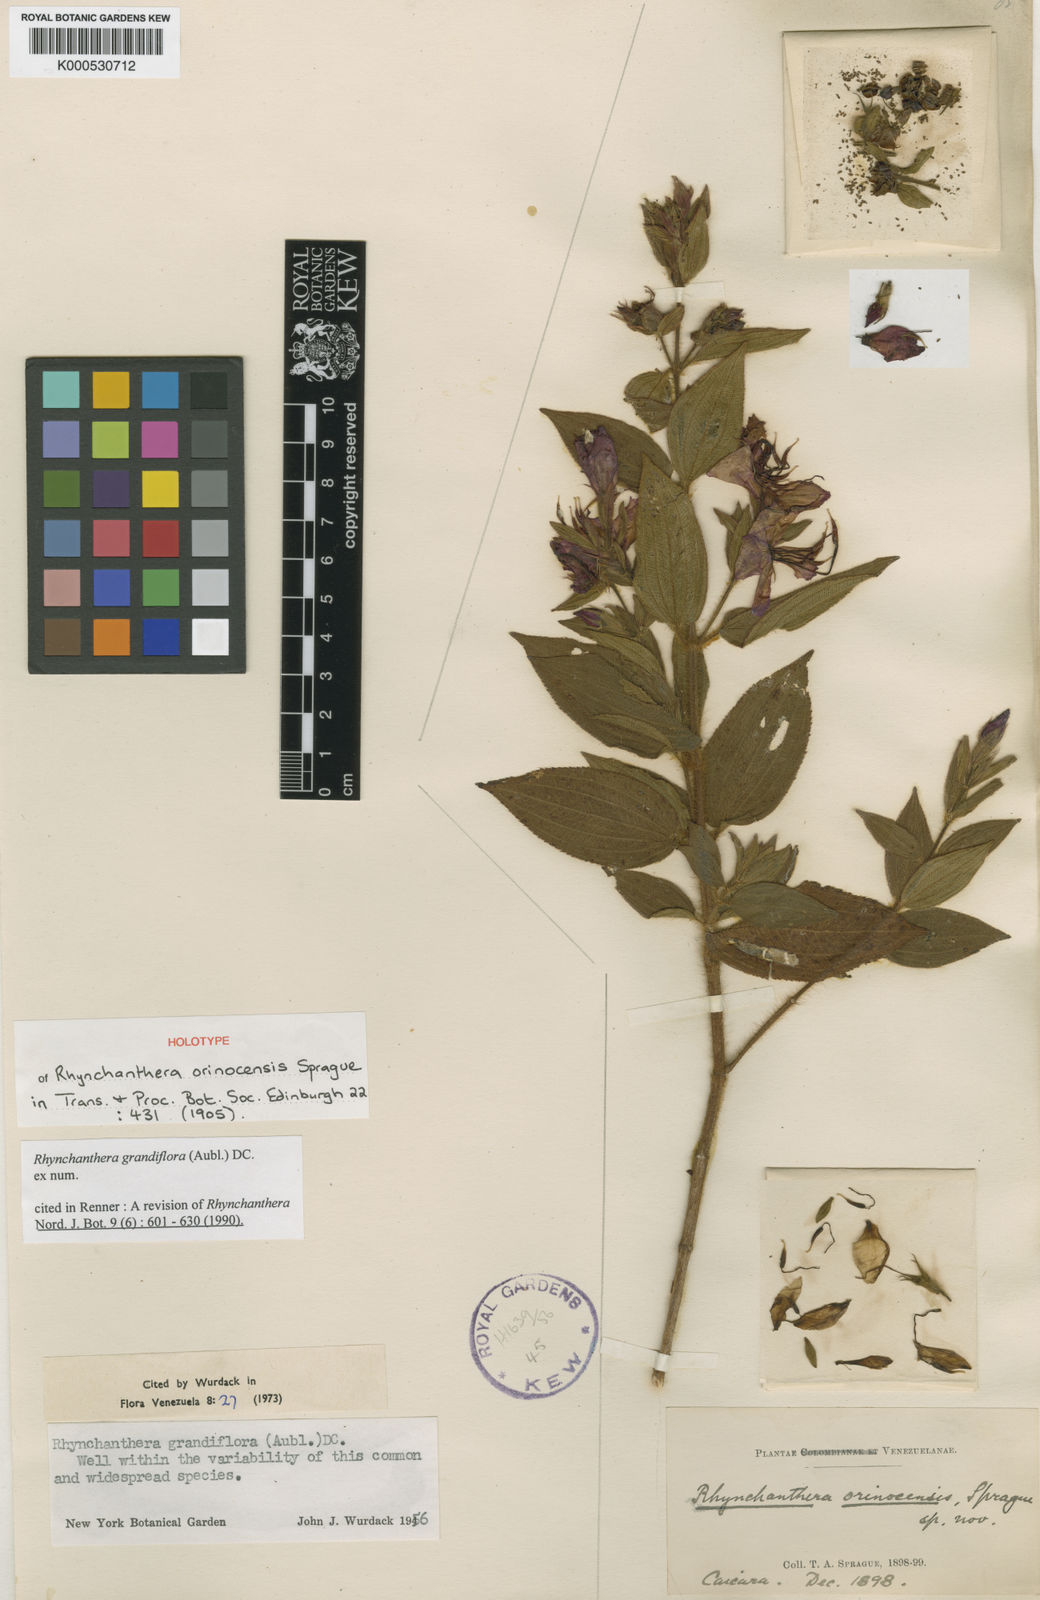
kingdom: Plantae
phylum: Tracheophyta
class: Magnoliopsida
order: Myrtales
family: Melastomataceae
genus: Rhynchanthera
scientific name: Rhynchanthera grandiflora
